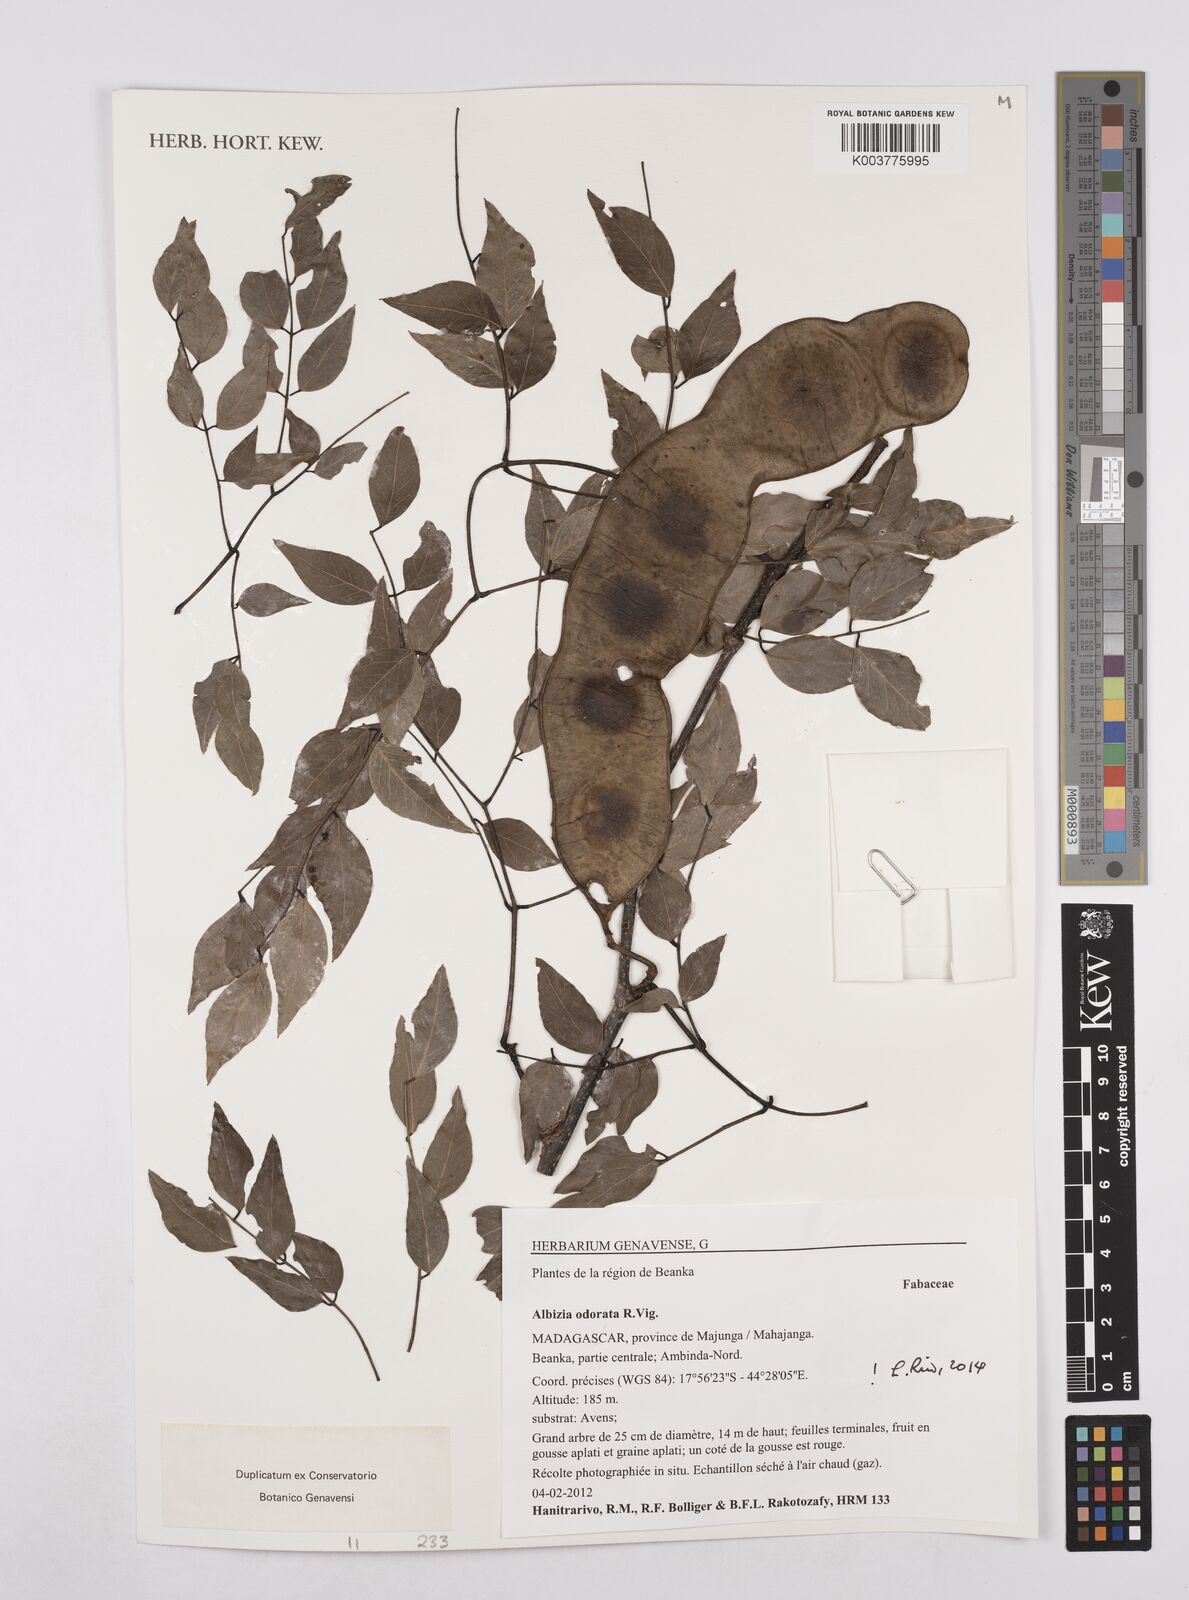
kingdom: Plantae
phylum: Tracheophyta
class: Magnoliopsida
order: Fabales
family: Fabaceae
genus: Albizia
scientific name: Albizia odorata
